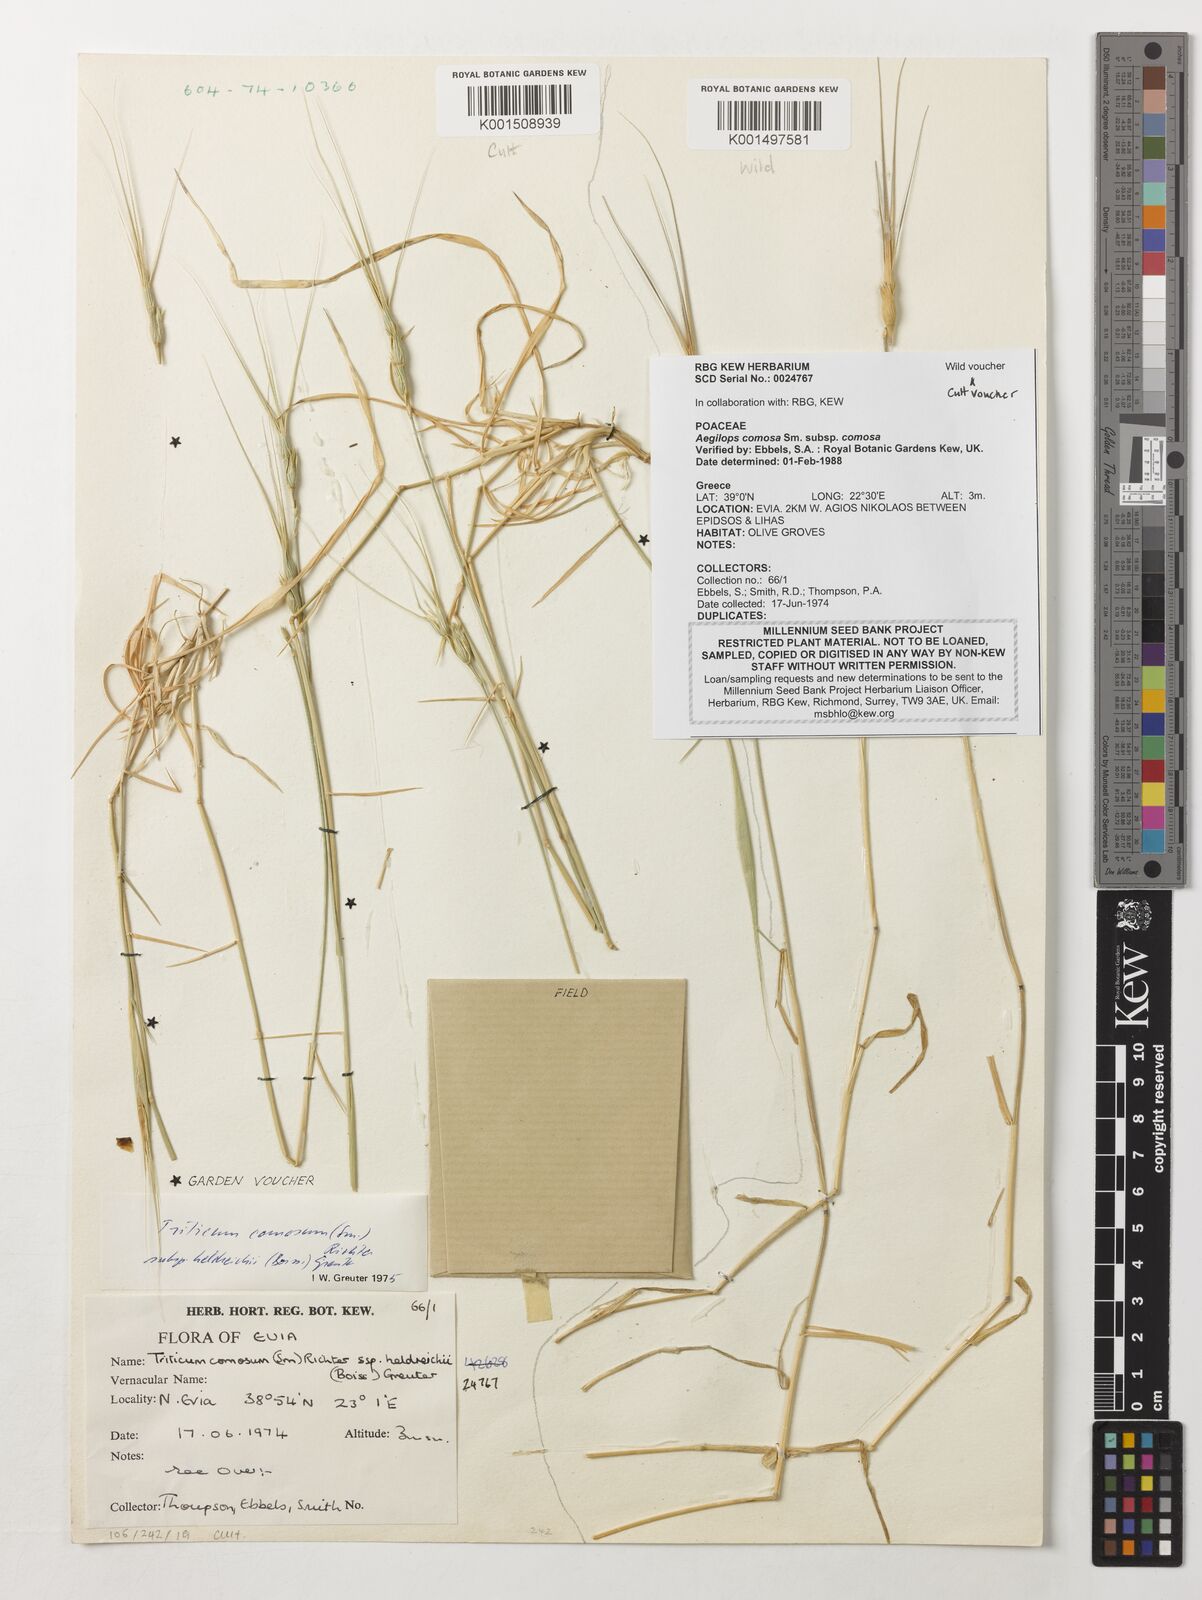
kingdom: Plantae
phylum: Tracheophyta
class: Liliopsida
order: Poales
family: Poaceae
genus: Aegilops
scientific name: Aegilops comosa
